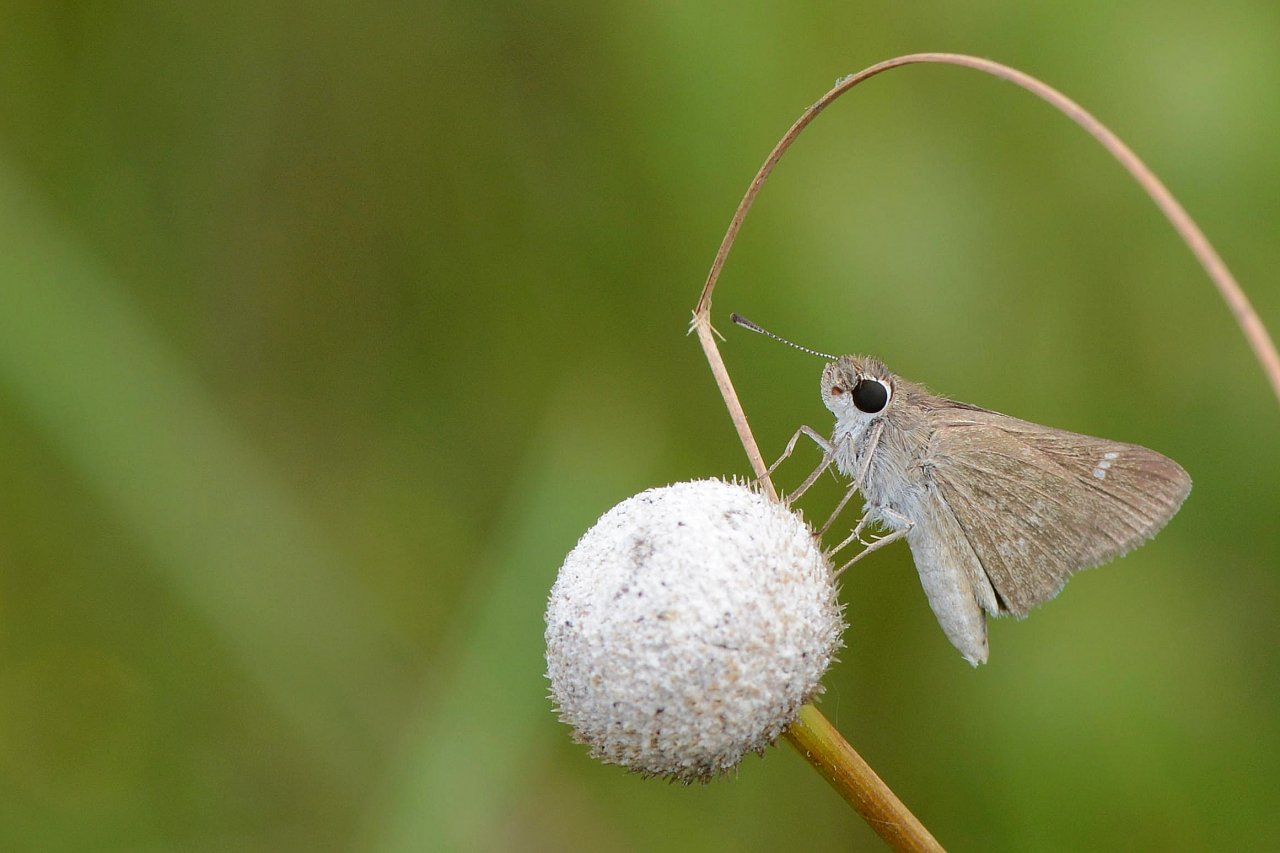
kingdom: Animalia
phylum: Arthropoda
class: Insecta
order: Lepidoptera
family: Hesperiidae
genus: Lerodea
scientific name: Lerodea eufala
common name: Eufala Skipper
